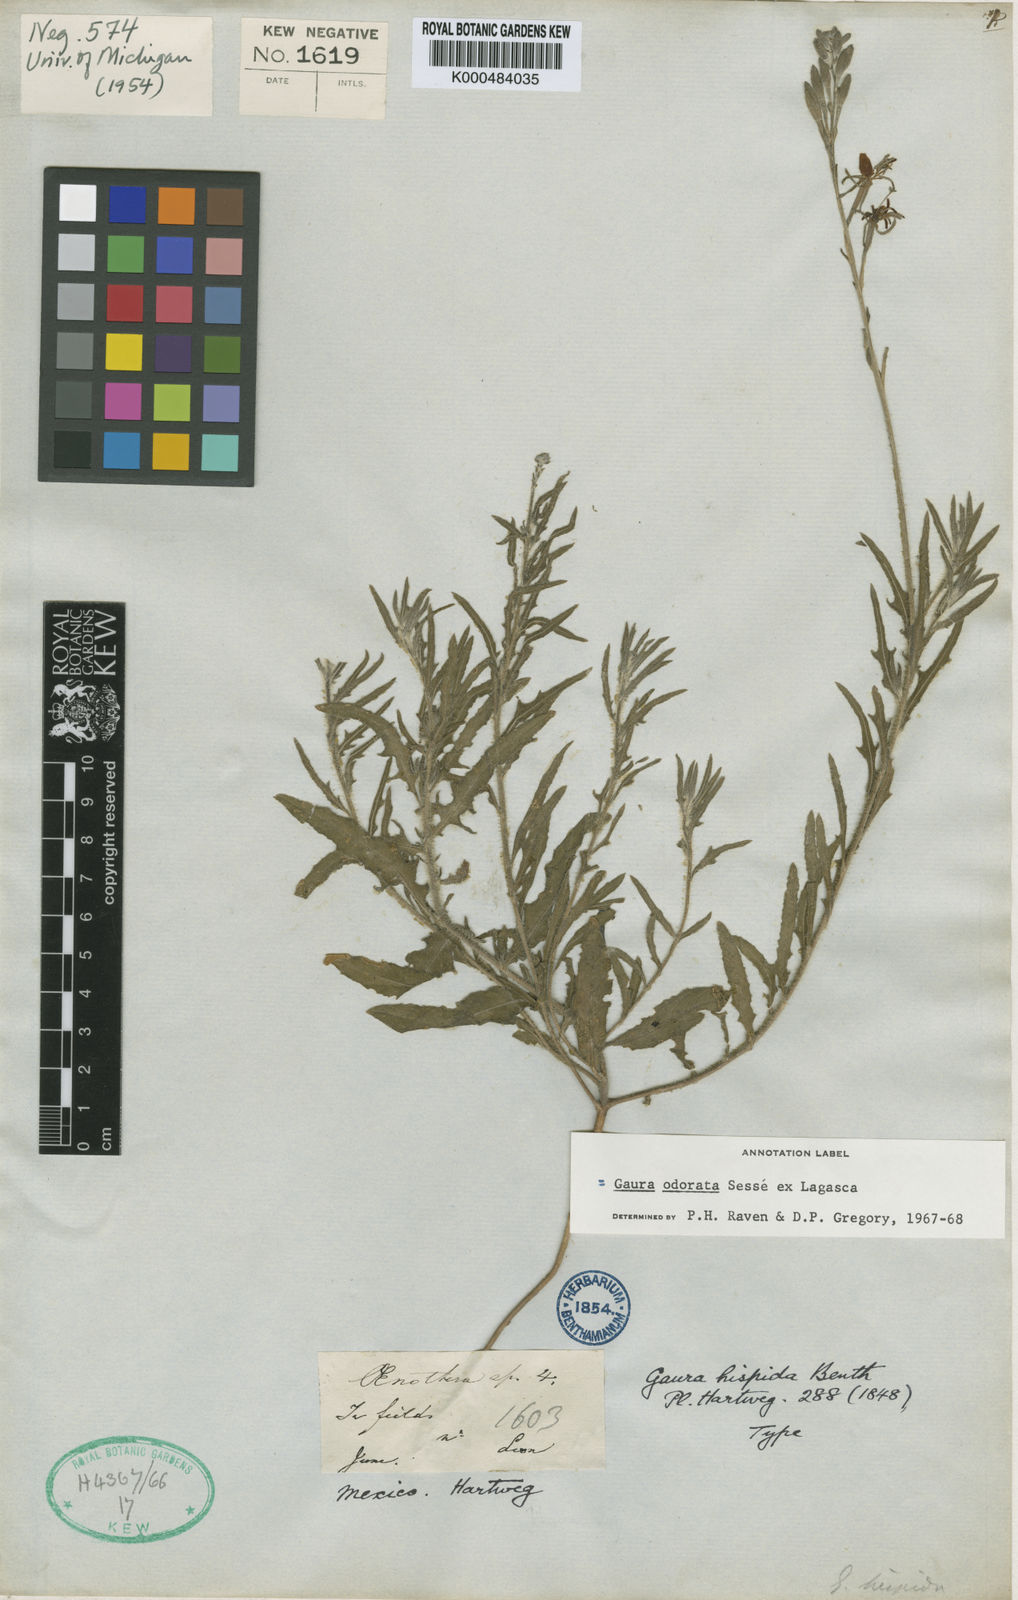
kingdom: Plantae
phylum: Tracheophyta
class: Magnoliopsida
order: Myrtales
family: Onagraceae
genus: Oenothera
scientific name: Oenothera
